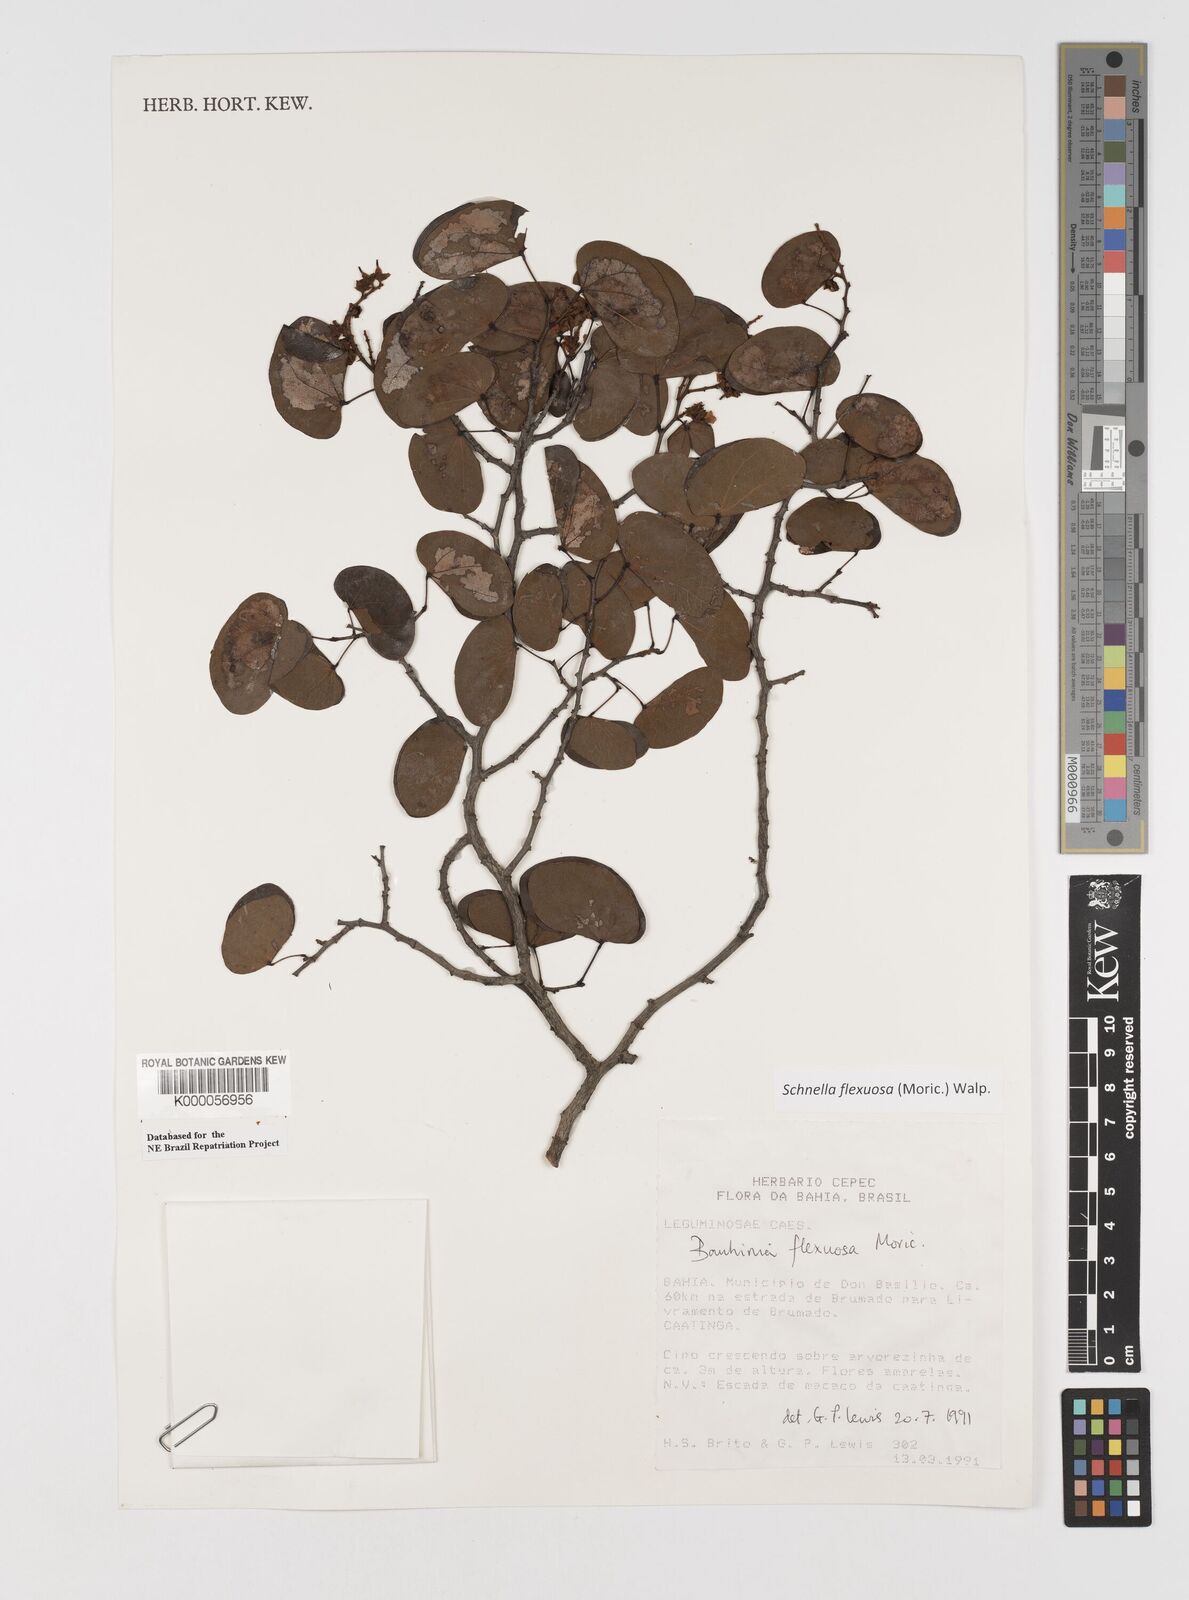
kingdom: Plantae
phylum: Tracheophyta
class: Magnoliopsida
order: Fabales
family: Fabaceae
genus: Schnella
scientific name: Schnella flexuosa
